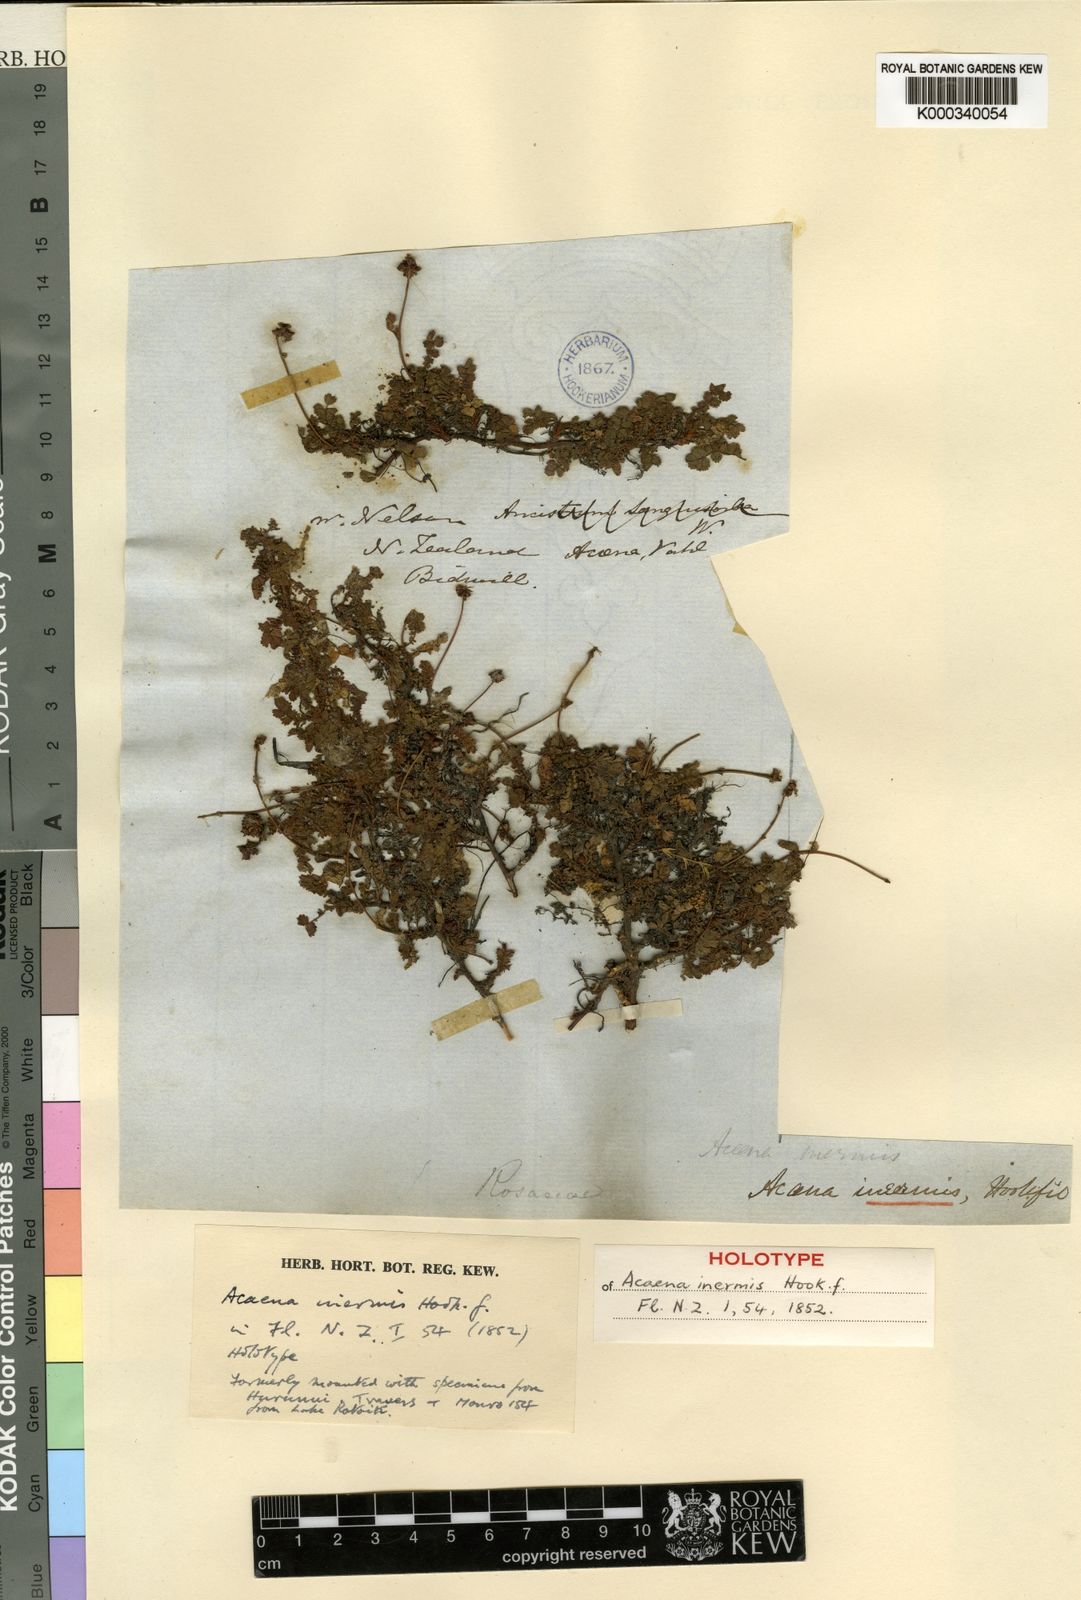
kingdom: Plantae
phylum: Tracheophyta
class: Magnoliopsida
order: Rosales
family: Rosaceae
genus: Acaena
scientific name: Acaena inermis
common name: Spineless acaena
